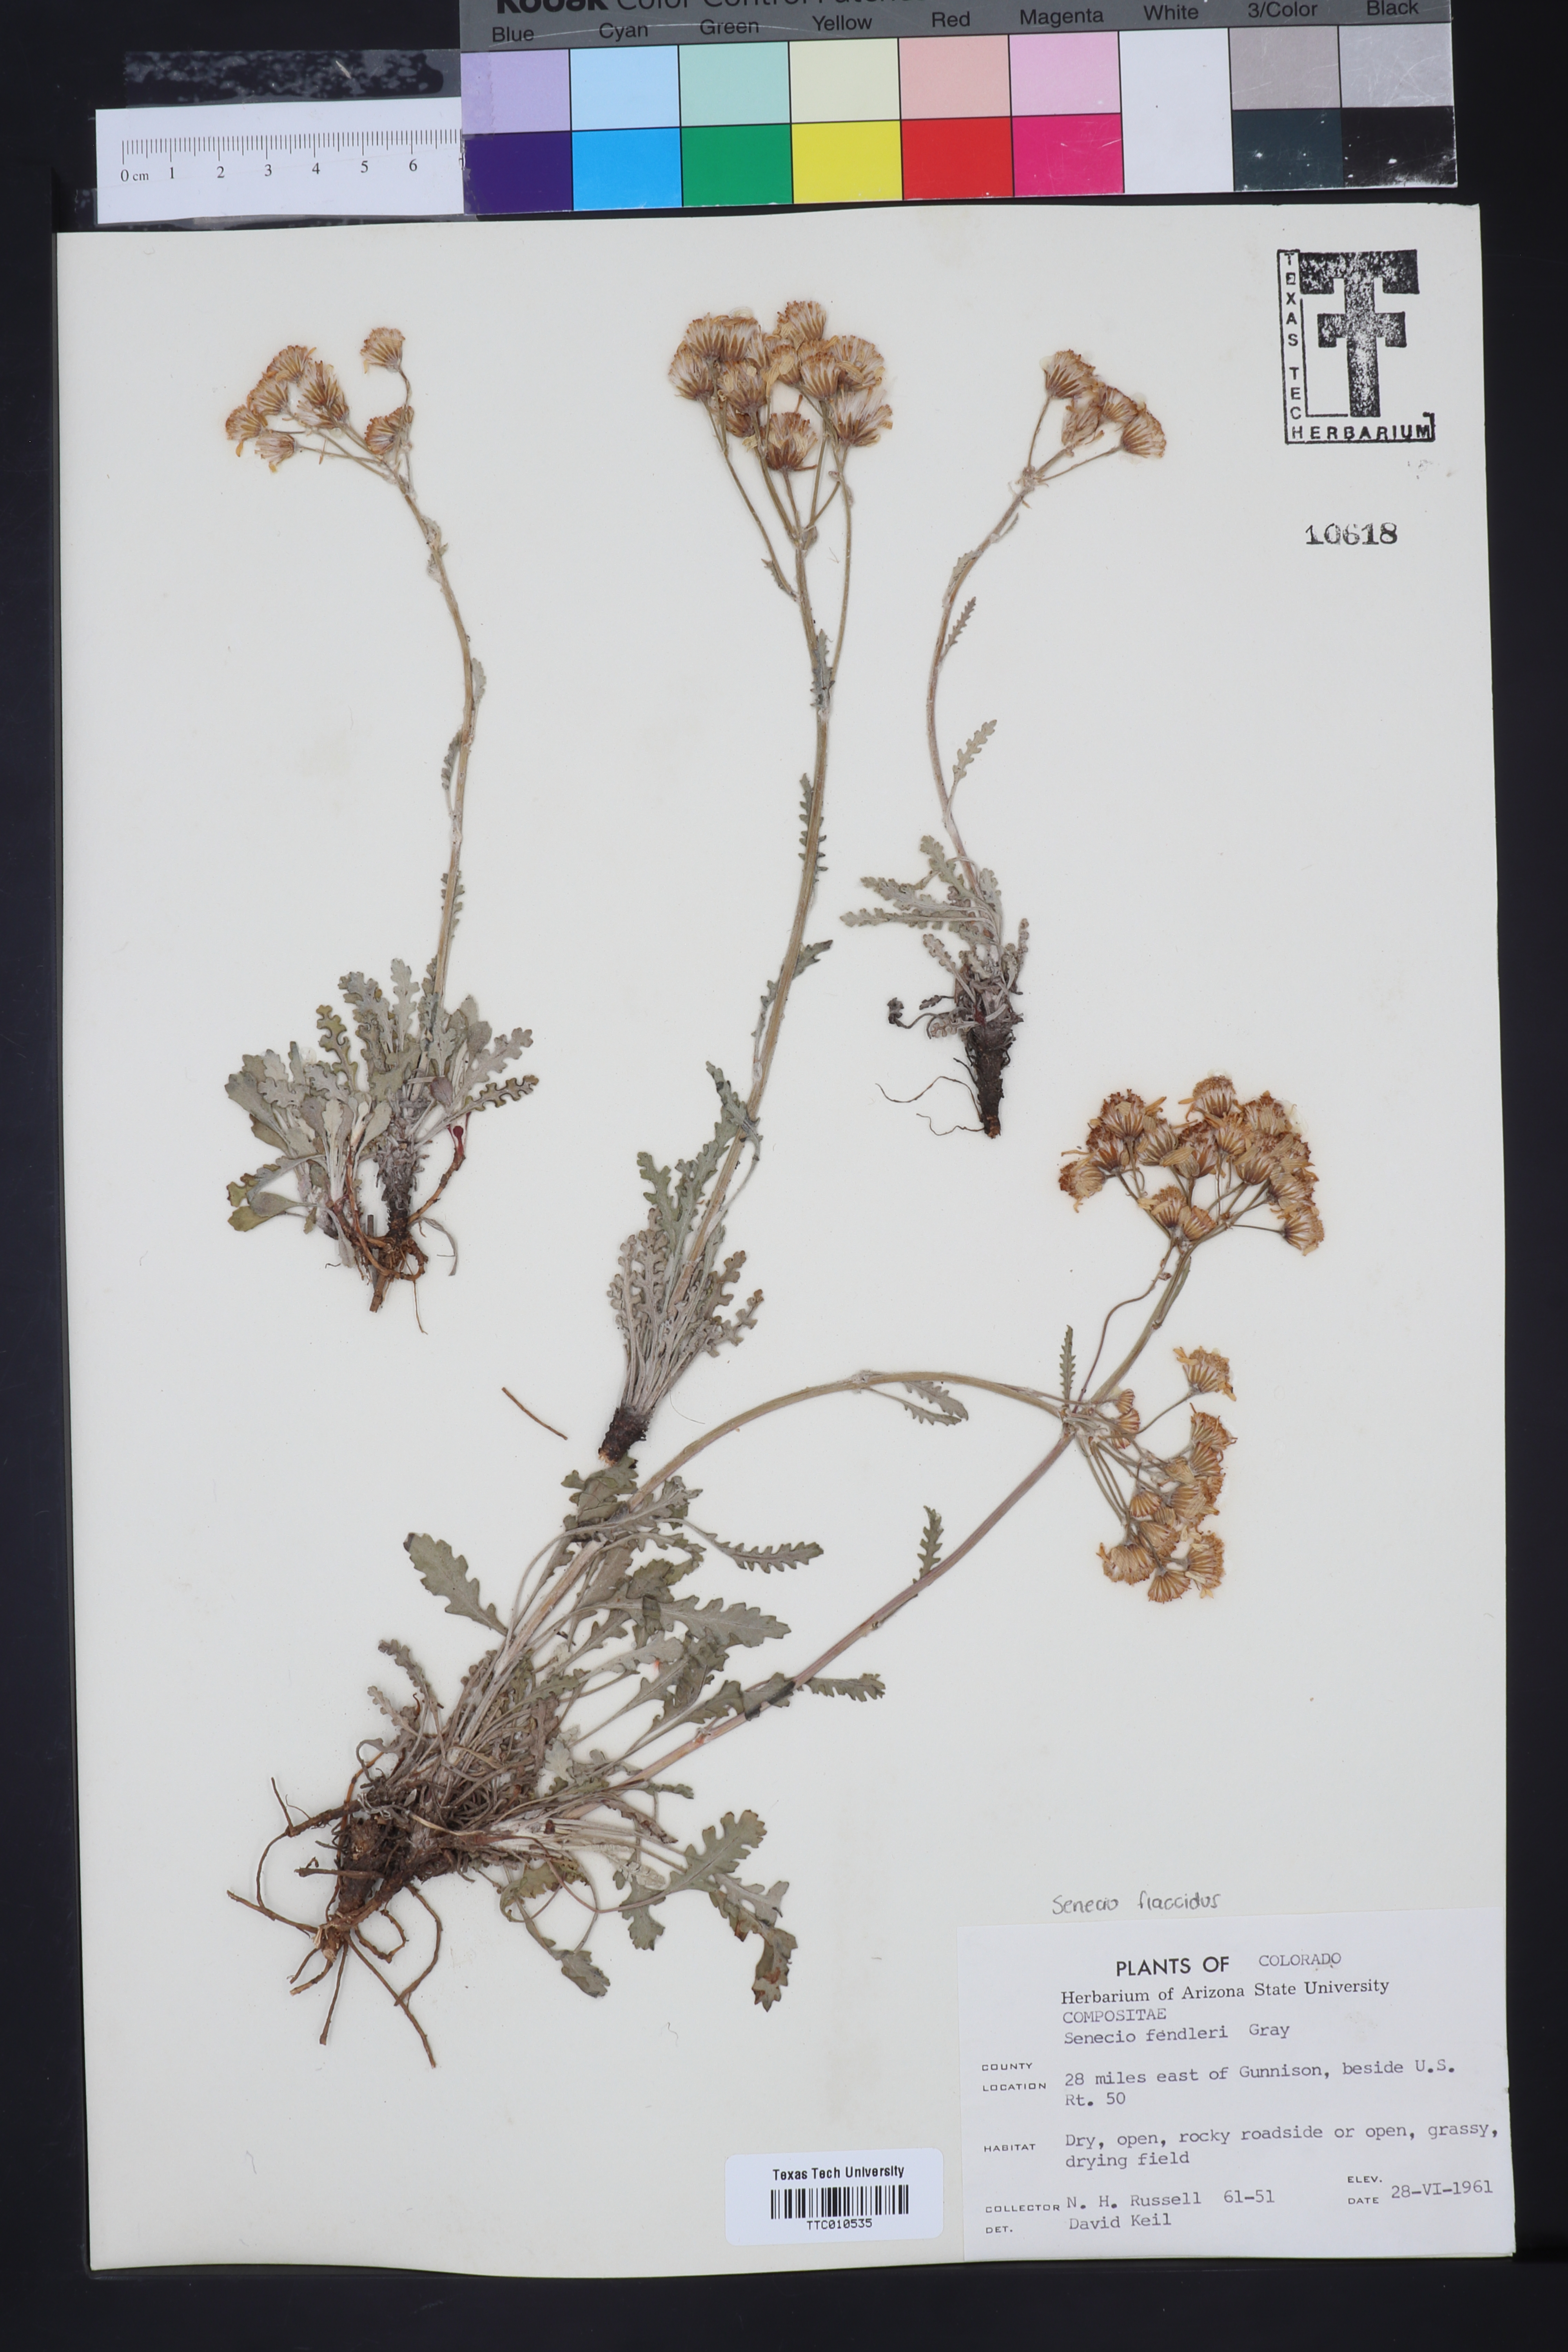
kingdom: Plantae
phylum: Tracheophyta
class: Magnoliopsida
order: Asterales
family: Asteraceae
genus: Packera
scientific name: Packera fendleri
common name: Notch-leaf butterweed
